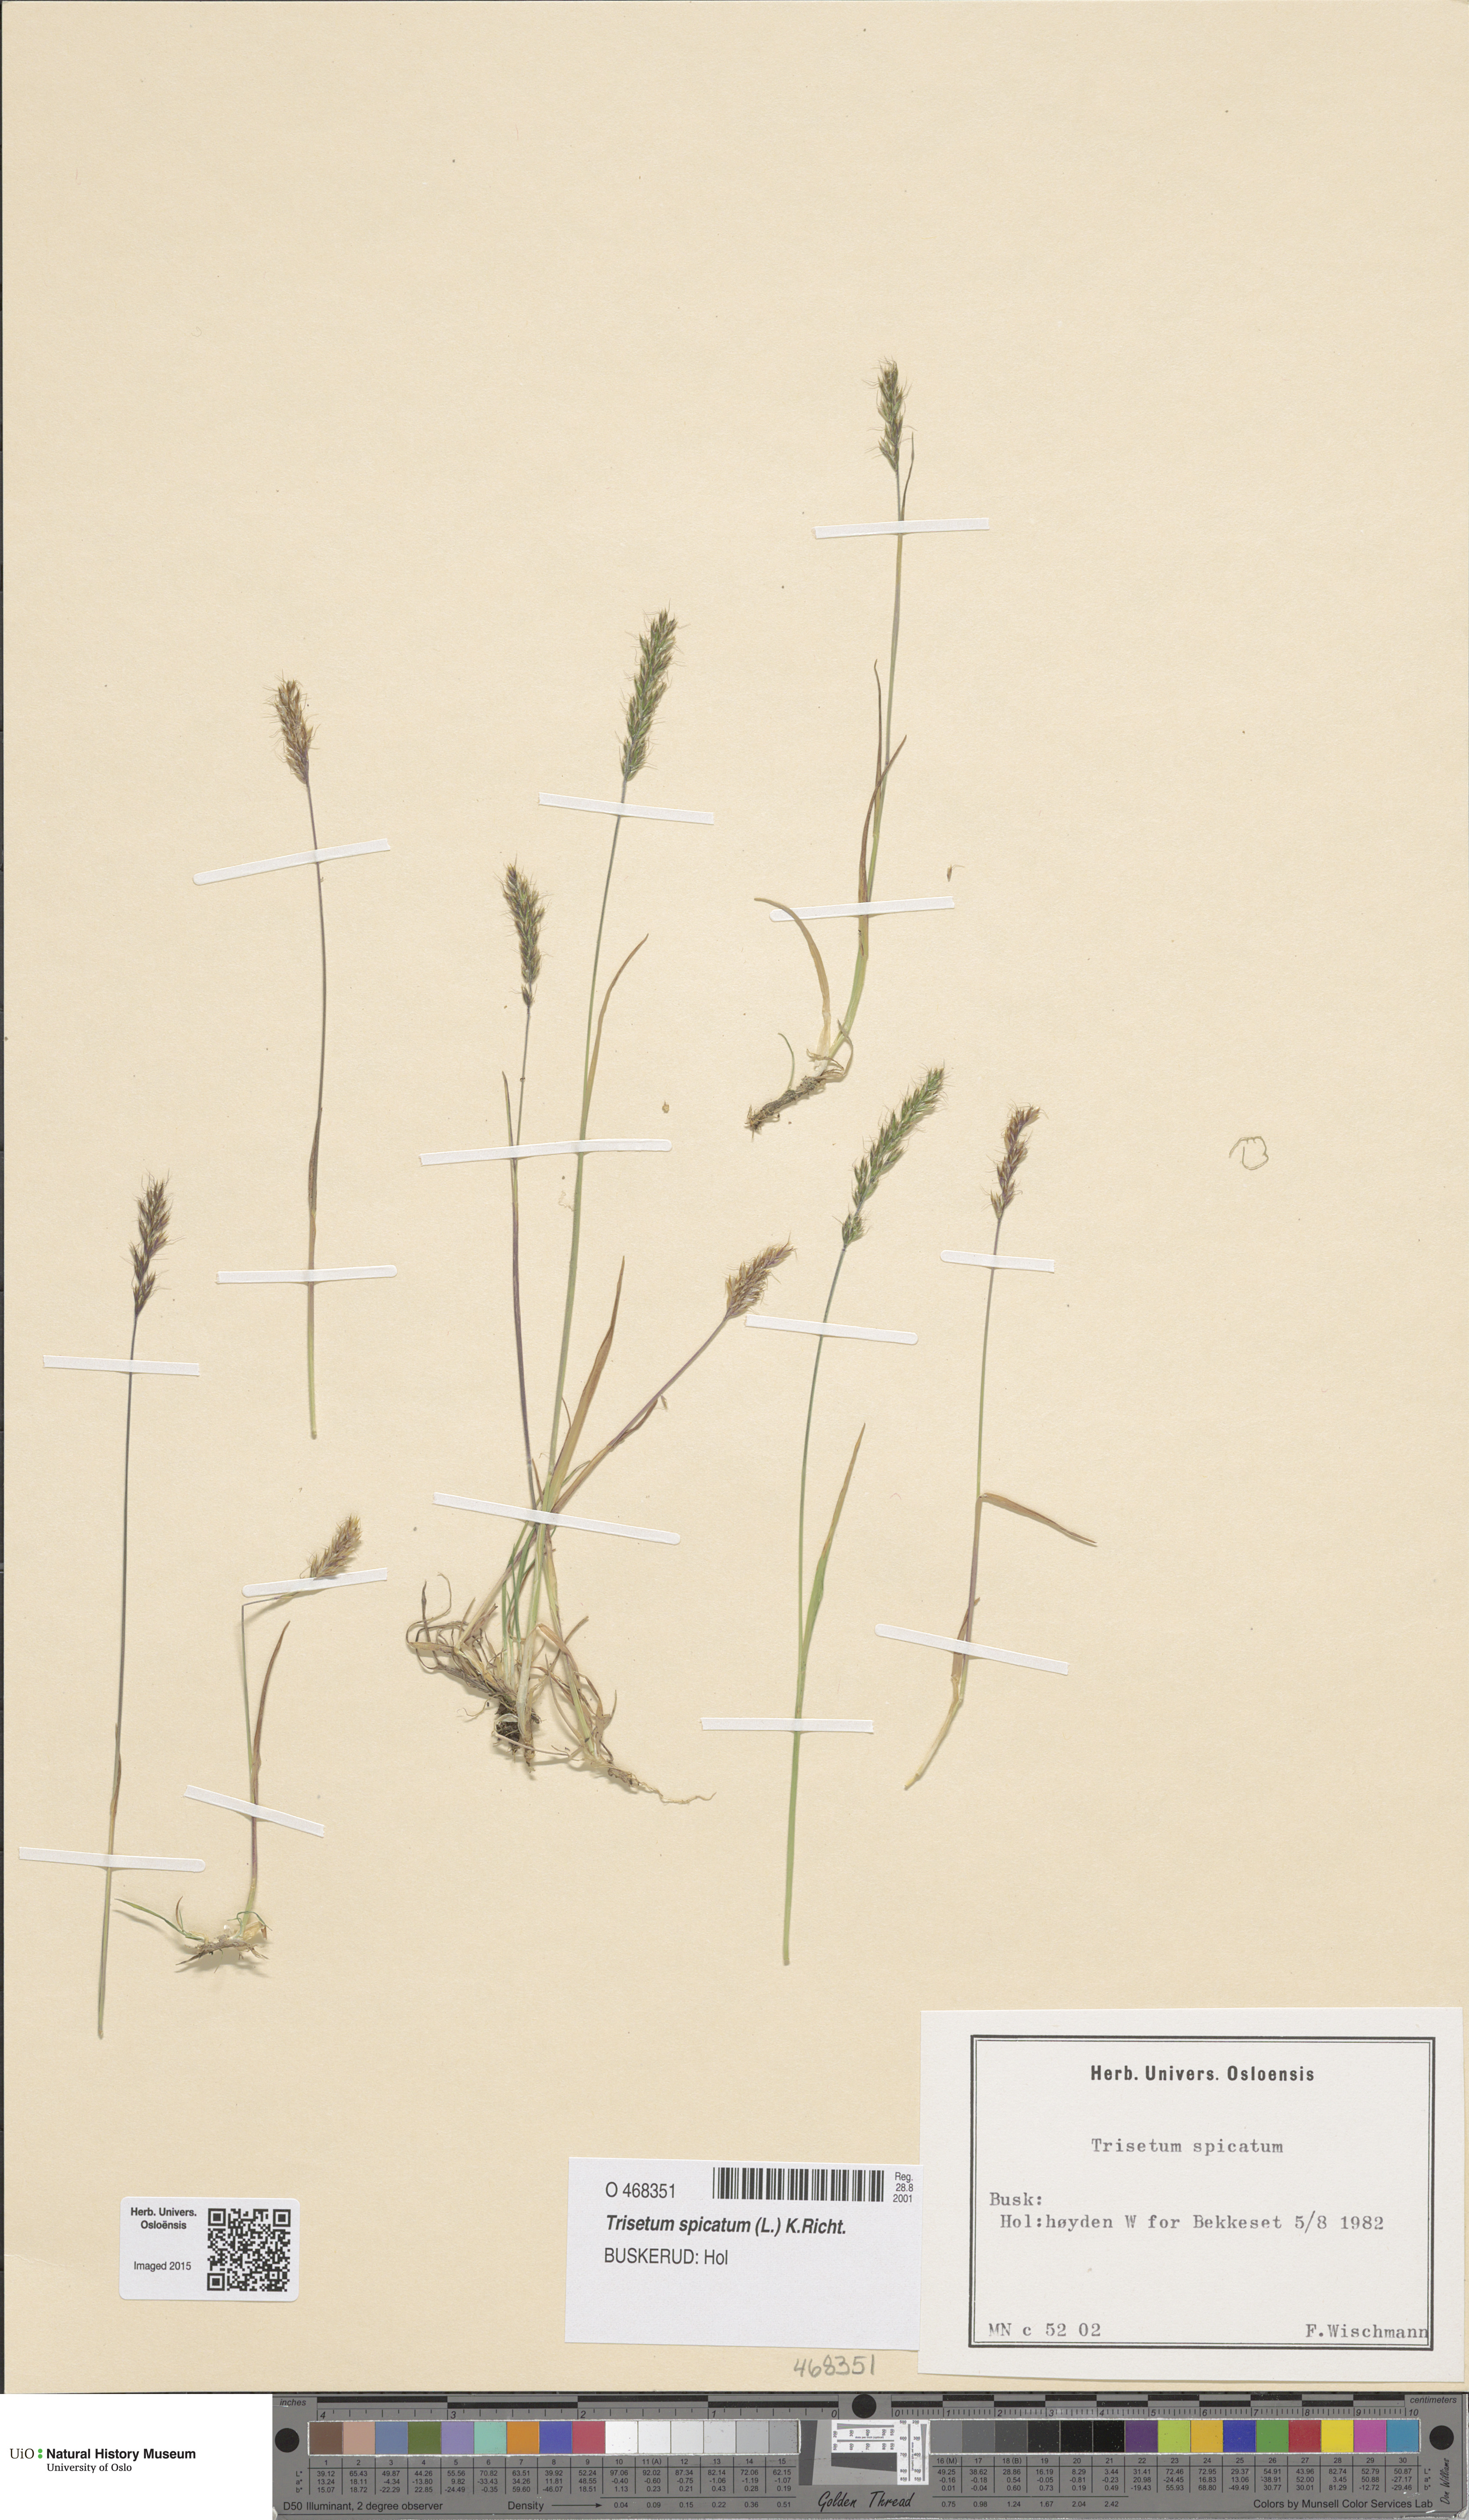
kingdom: Plantae
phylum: Tracheophyta
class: Liliopsida
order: Poales
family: Poaceae
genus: Koeleria
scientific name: Koeleria spicata
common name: Mountain trisetum
